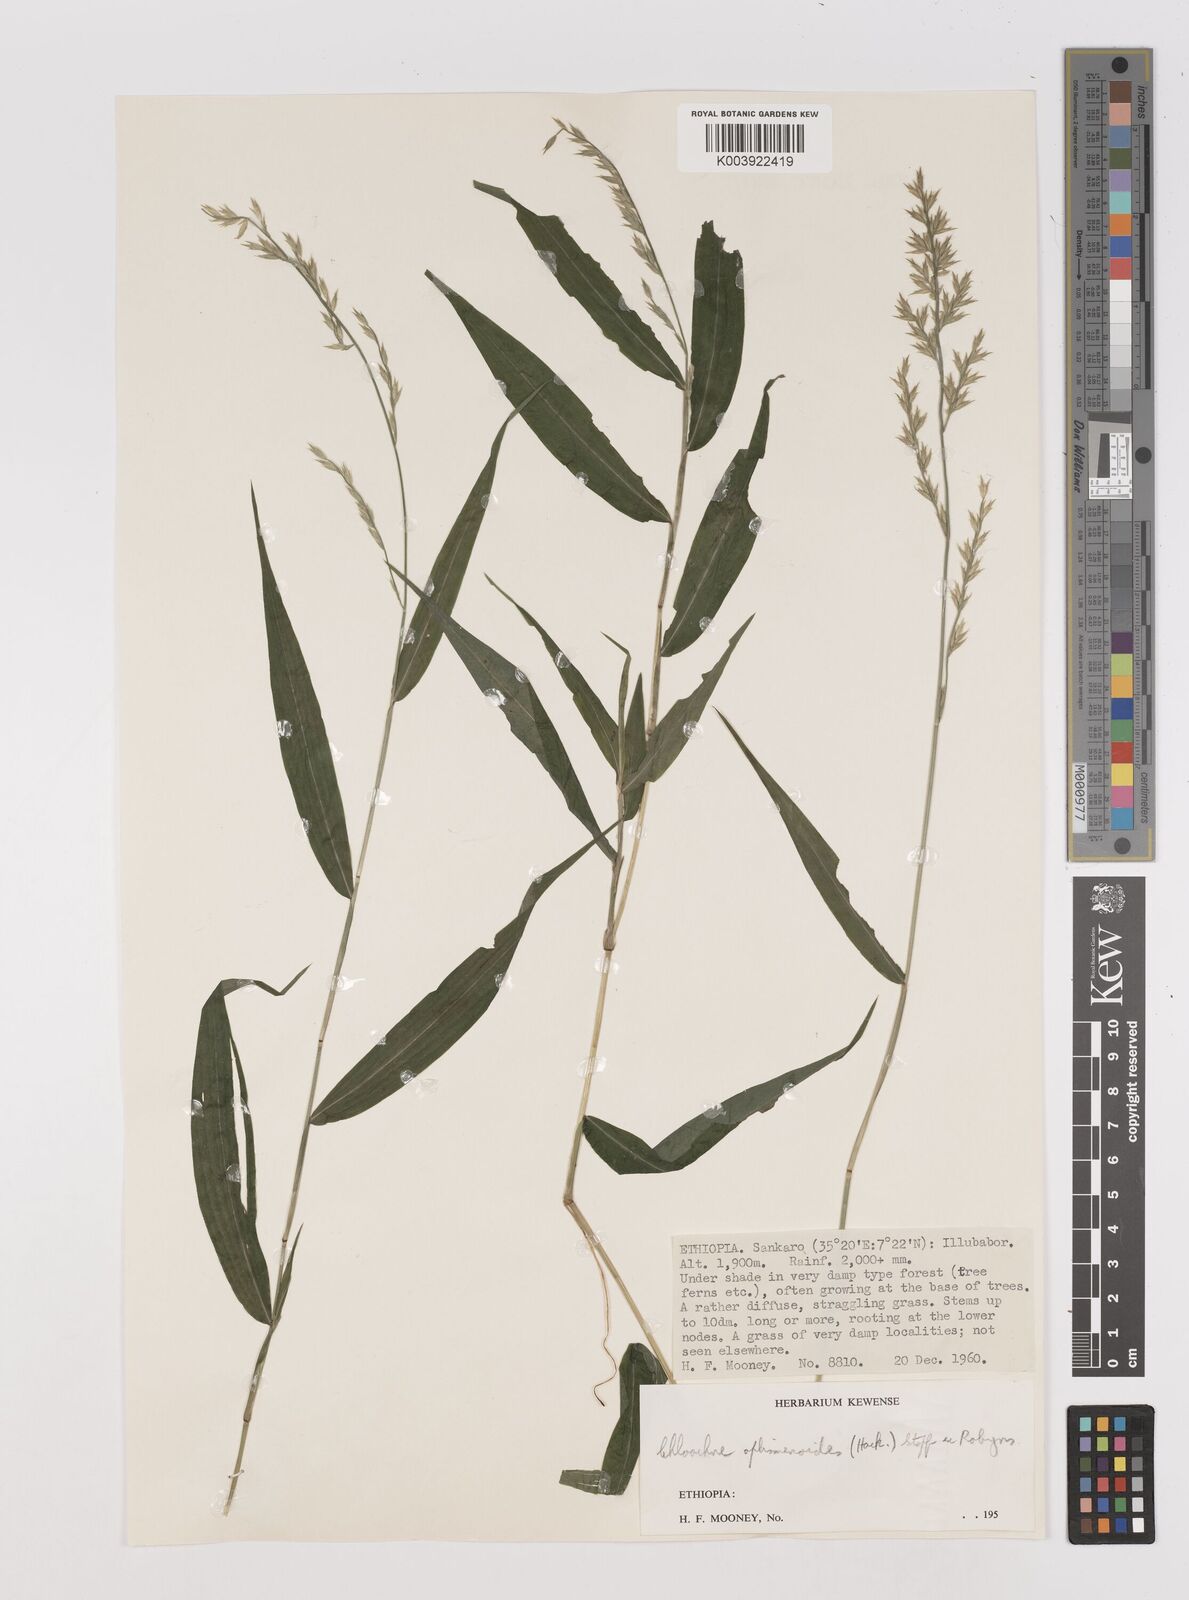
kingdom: Plantae
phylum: Tracheophyta
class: Liliopsida
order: Poales
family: Poaceae
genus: Poecilostachys
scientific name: Poecilostachys oplismenoides
